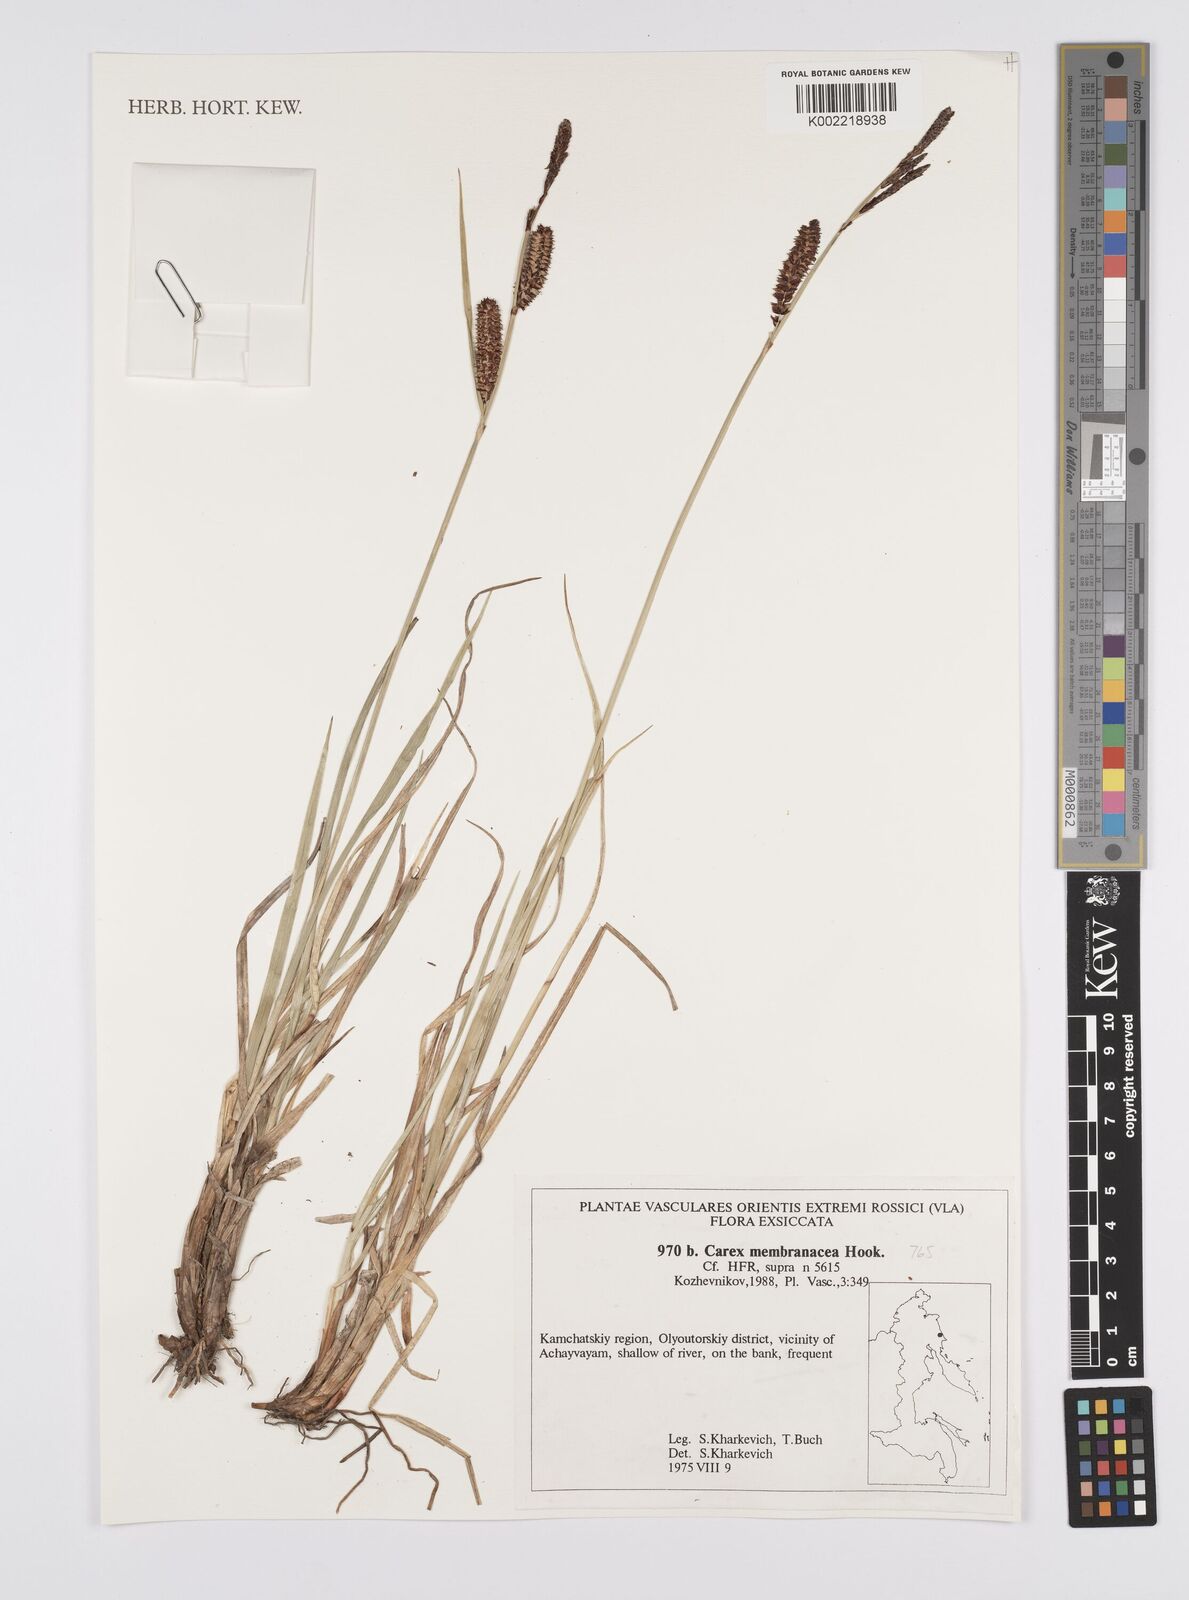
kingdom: Plantae
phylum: Tracheophyta
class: Liliopsida
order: Poales
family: Cyperaceae
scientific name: Cyperaceae
